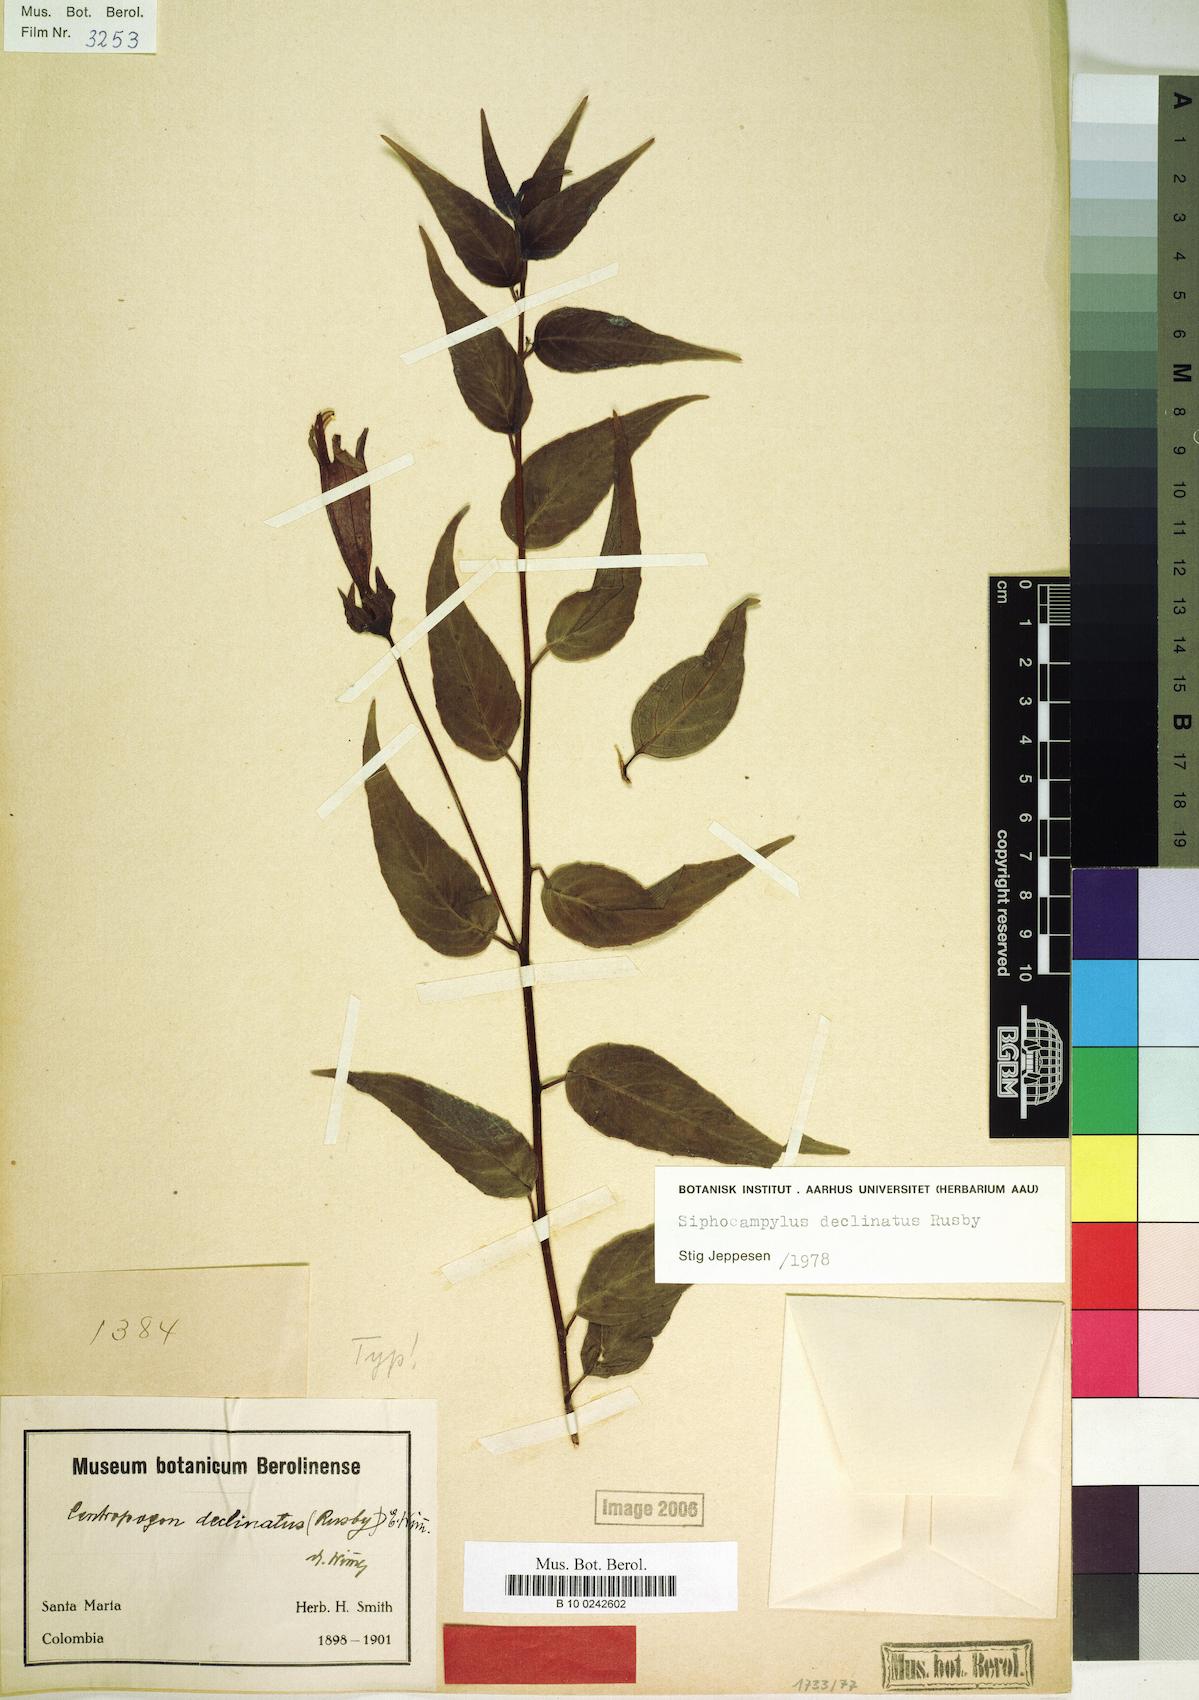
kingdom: Plantae
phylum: Tracheophyta
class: Magnoliopsida
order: Asterales
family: Campanulaceae
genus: Siphocampylus
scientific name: Siphocampylus declinatus
